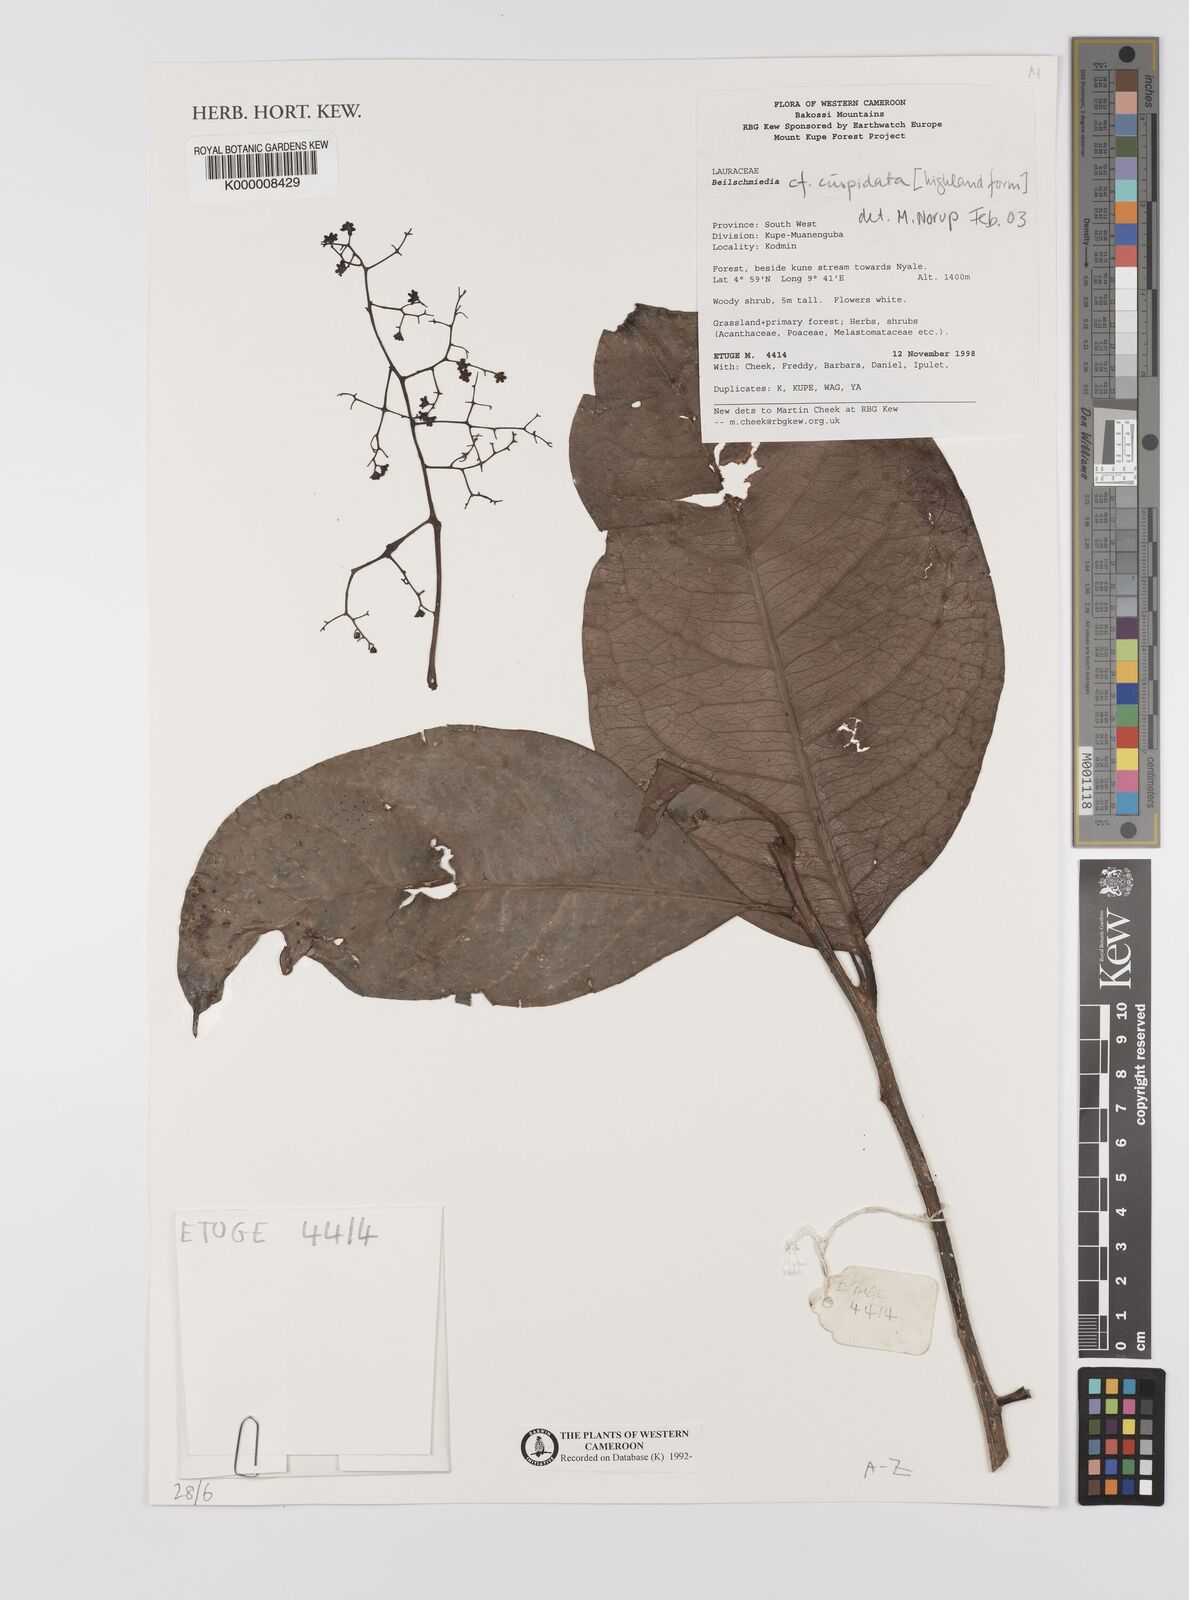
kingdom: Plantae
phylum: Tracheophyta
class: Magnoliopsida
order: Laurales
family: Lauraceae
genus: Beilschmiedia
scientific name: Beilschmiedia cuspidata
